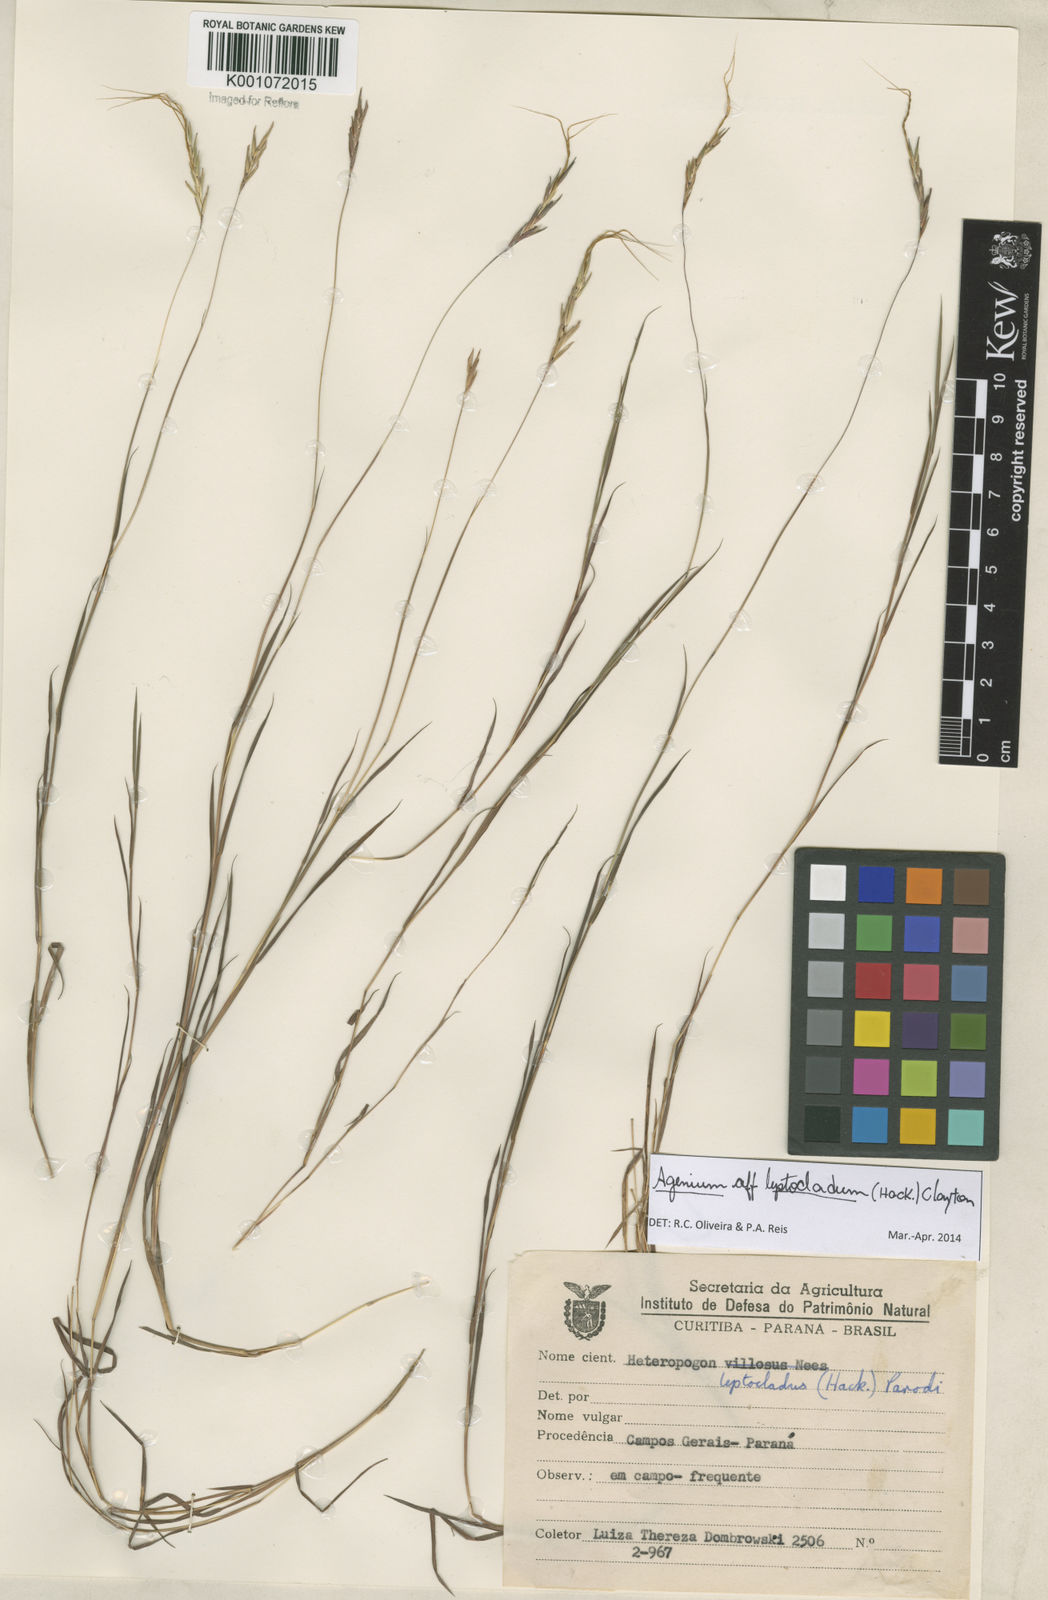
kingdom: Plantae
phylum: Tracheophyta
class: Liliopsida
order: Poales
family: Poaceae
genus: Agenium
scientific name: Agenium leptocladum
